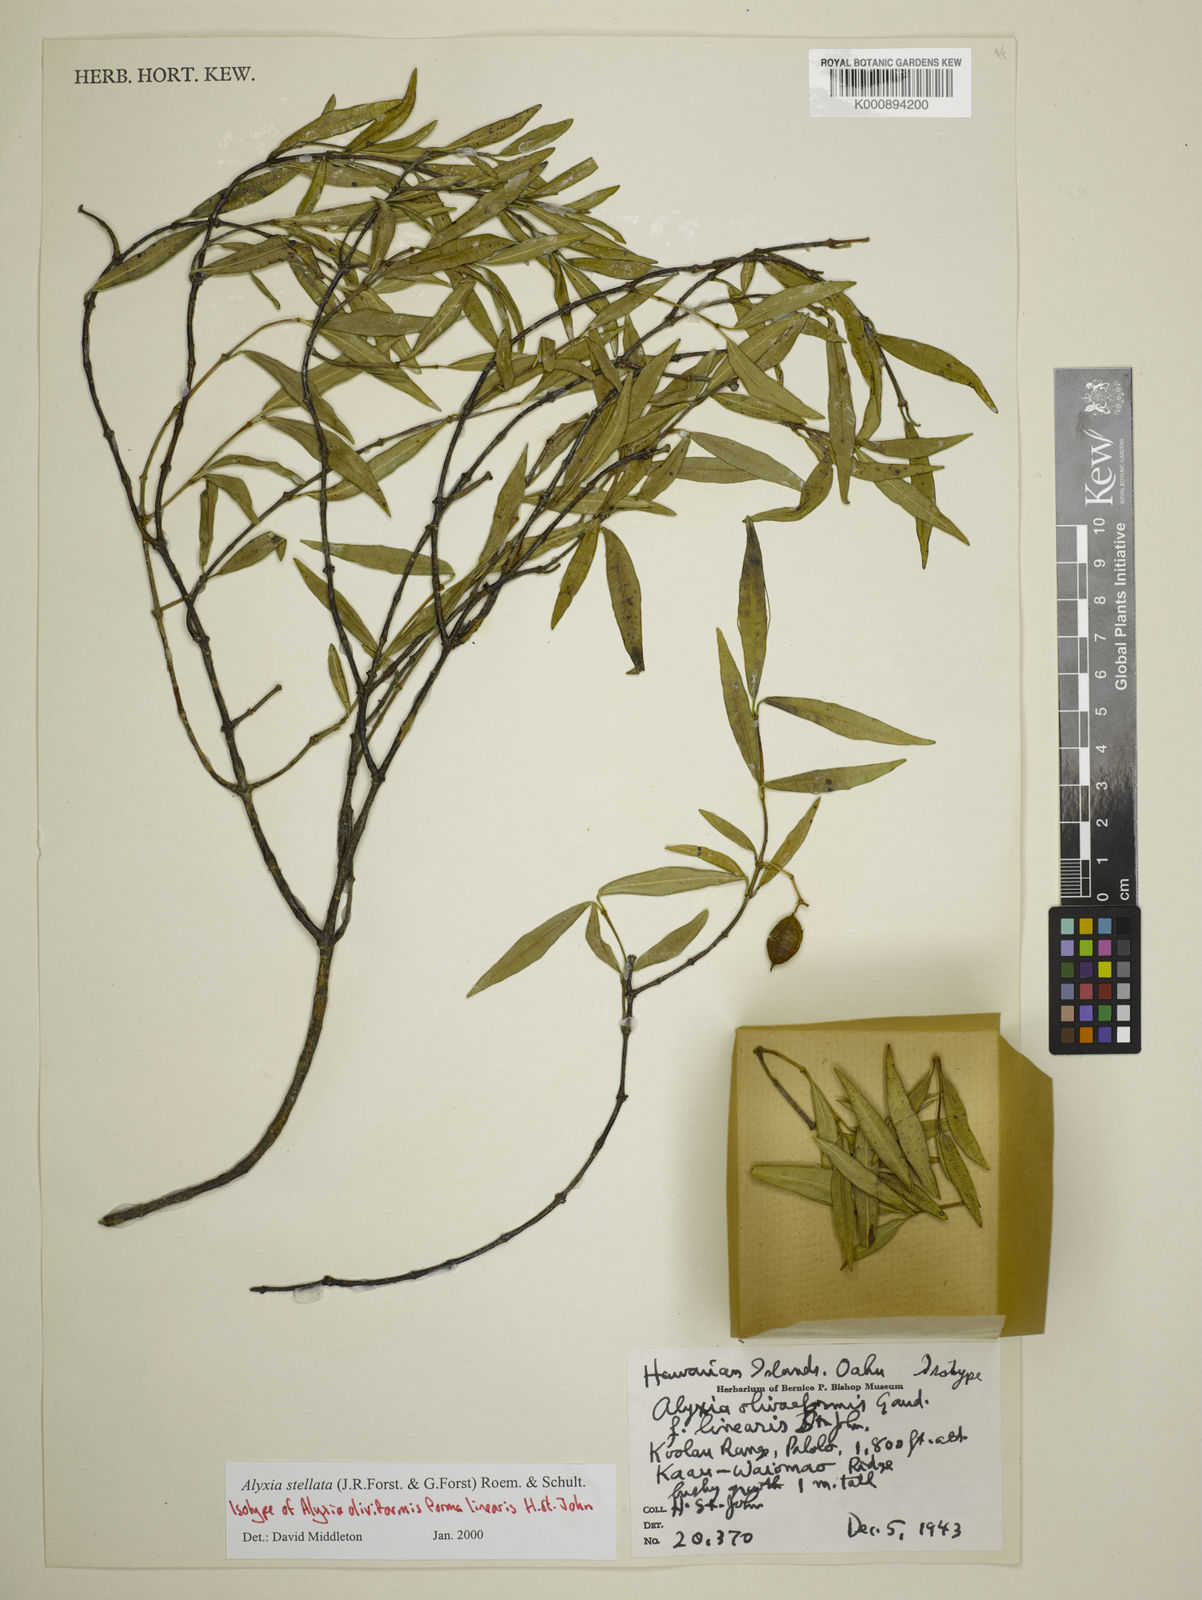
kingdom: Plantae
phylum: Tracheophyta
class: Magnoliopsida
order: Gentianales
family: Apocynaceae
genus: Alyxia
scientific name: Alyxia stellata
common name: Maile
